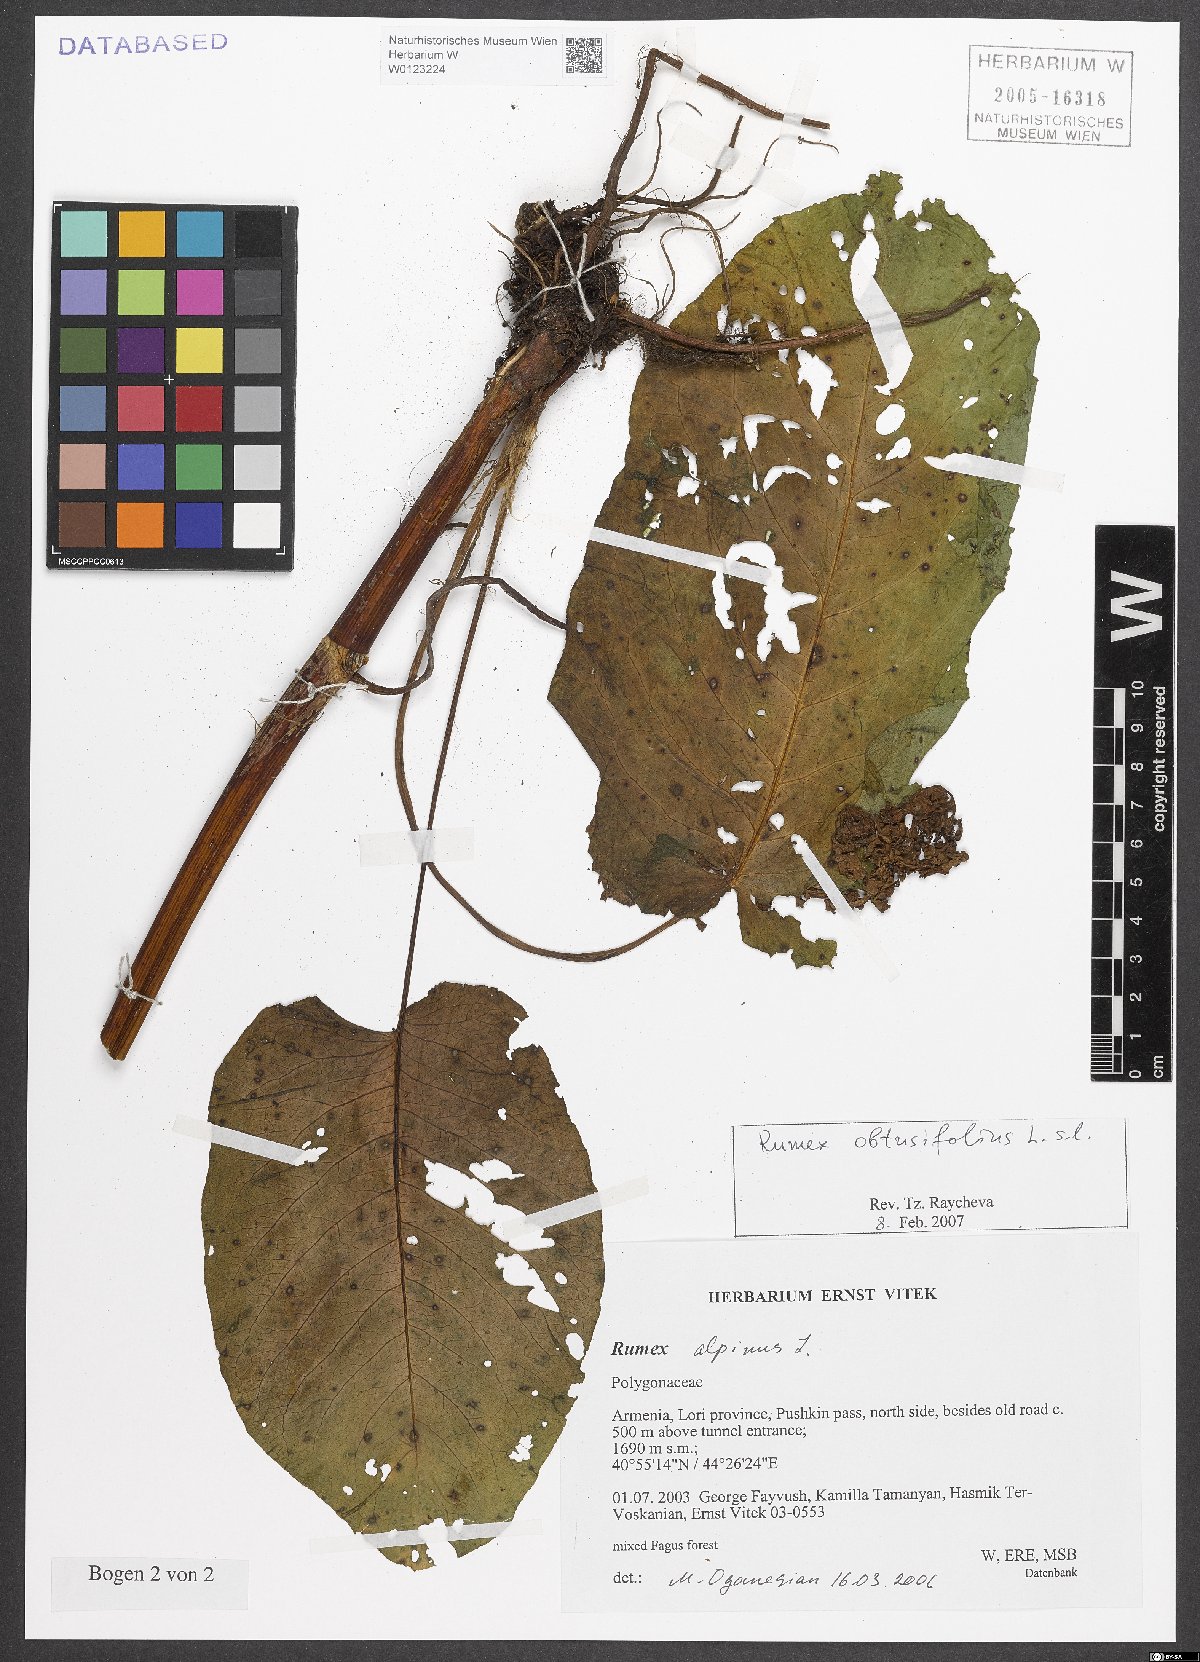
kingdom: Plantae
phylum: Tracheophyta
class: Magnoliopsida
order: Caryophyllales
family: Polygonaceae
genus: Rumex
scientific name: Rumex obtusifolius
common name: Bitter dock
